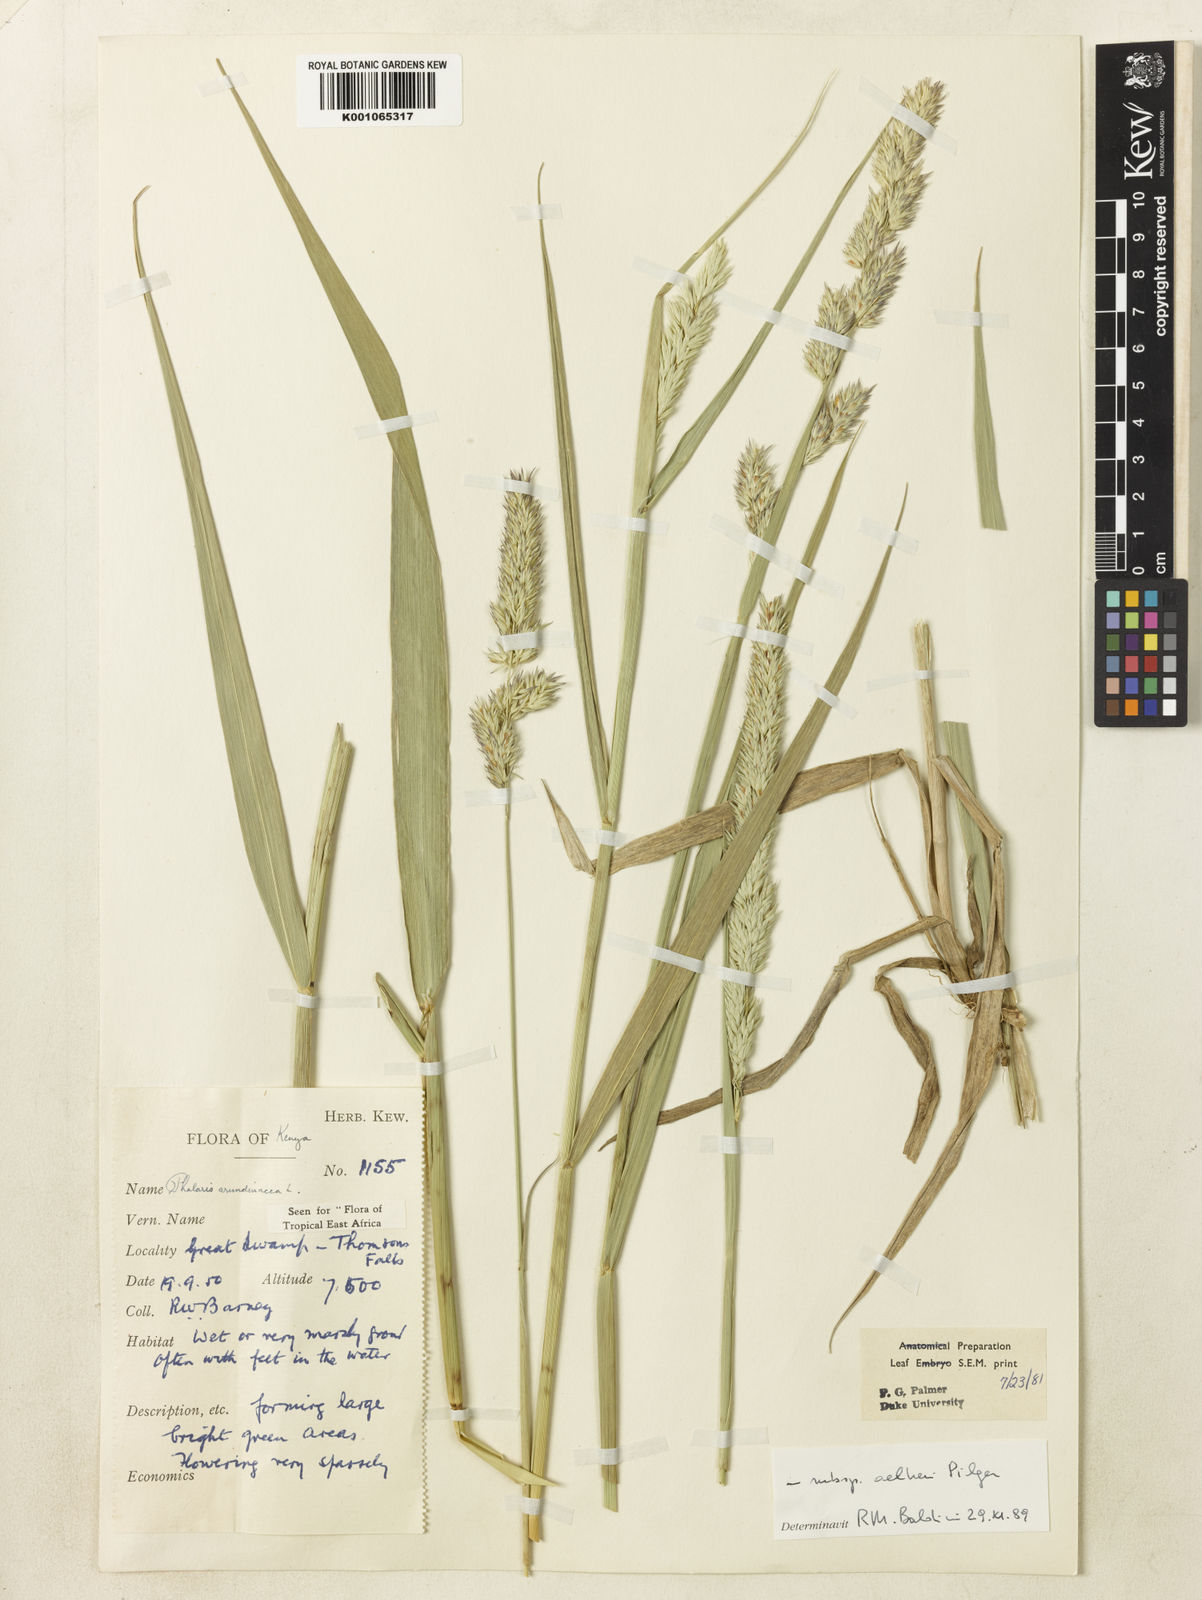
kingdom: Plantae
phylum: Tracheophyta
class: Liliopsida
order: Poales
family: Poaceae
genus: Phalaris
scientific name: Phalaris arundinacea
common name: Reed canary-grass
